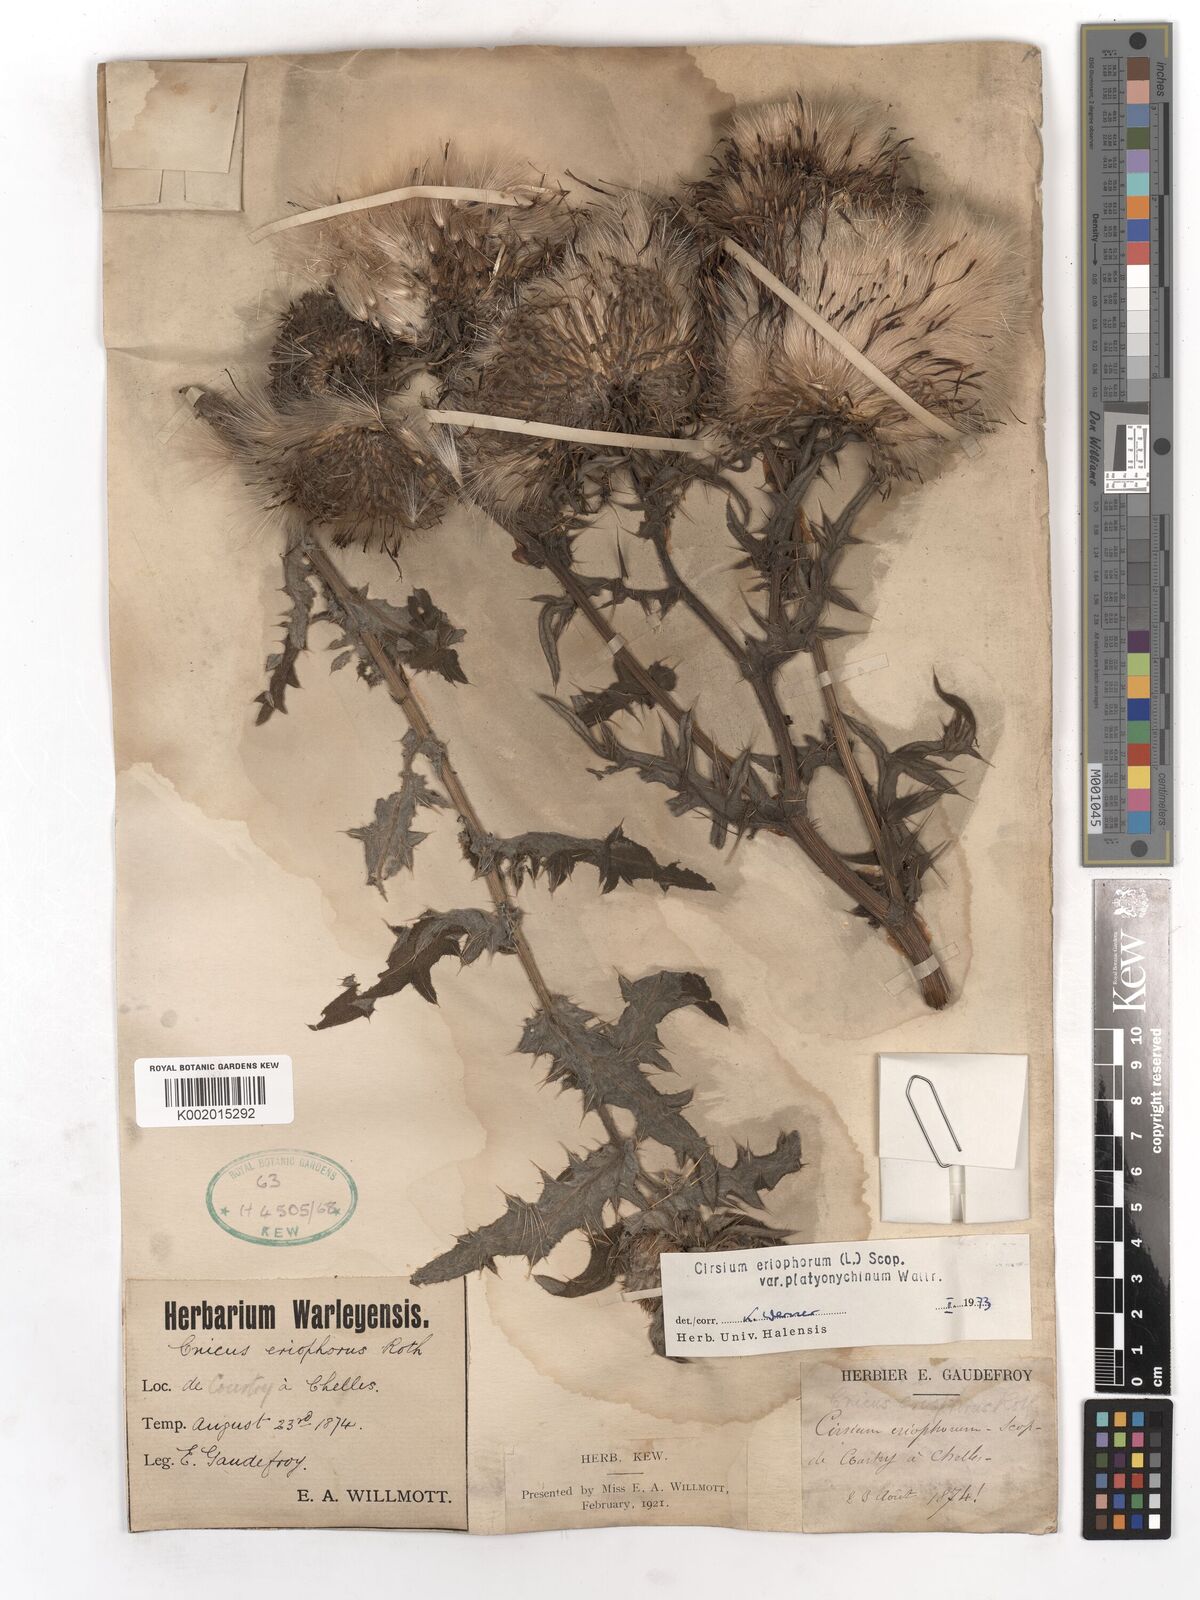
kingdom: Plantae
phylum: Tracheophyta
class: Magnoliopsida
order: Asterales
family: Asteraceae
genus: Lophiolepis
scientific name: Lophiolepis eriophora
